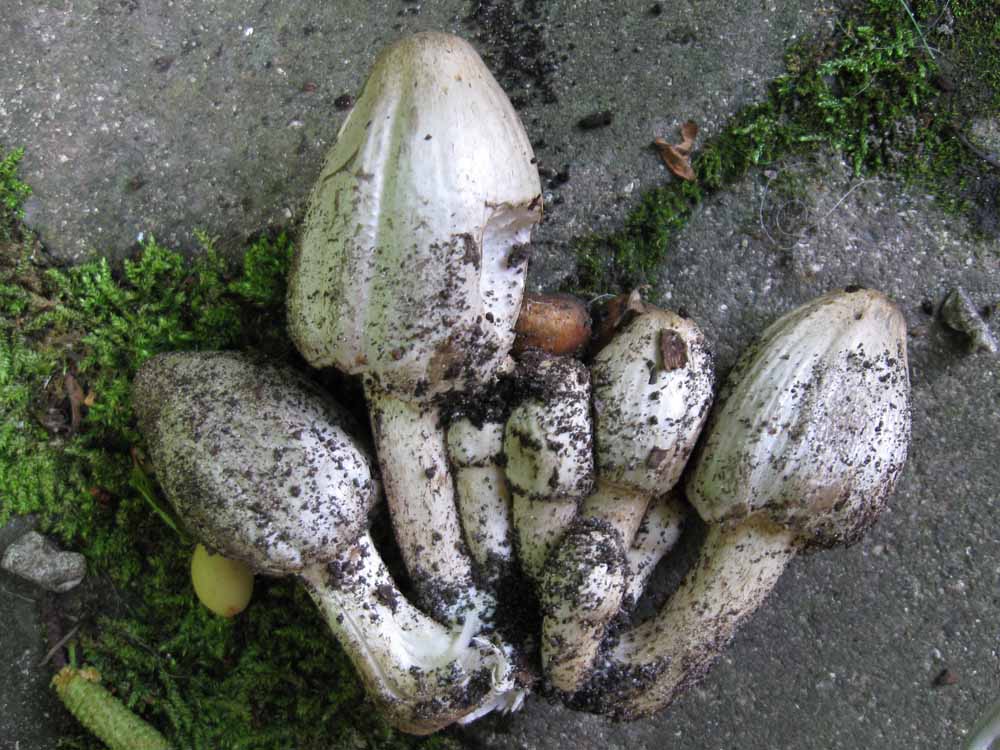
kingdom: Fungi
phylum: Basidiomycota
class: Agaricomycetes
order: Agaricales
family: Psathyrellaceae
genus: Coprinopsis
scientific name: Coprinopsis atramentaria
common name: almindelig blækhat
